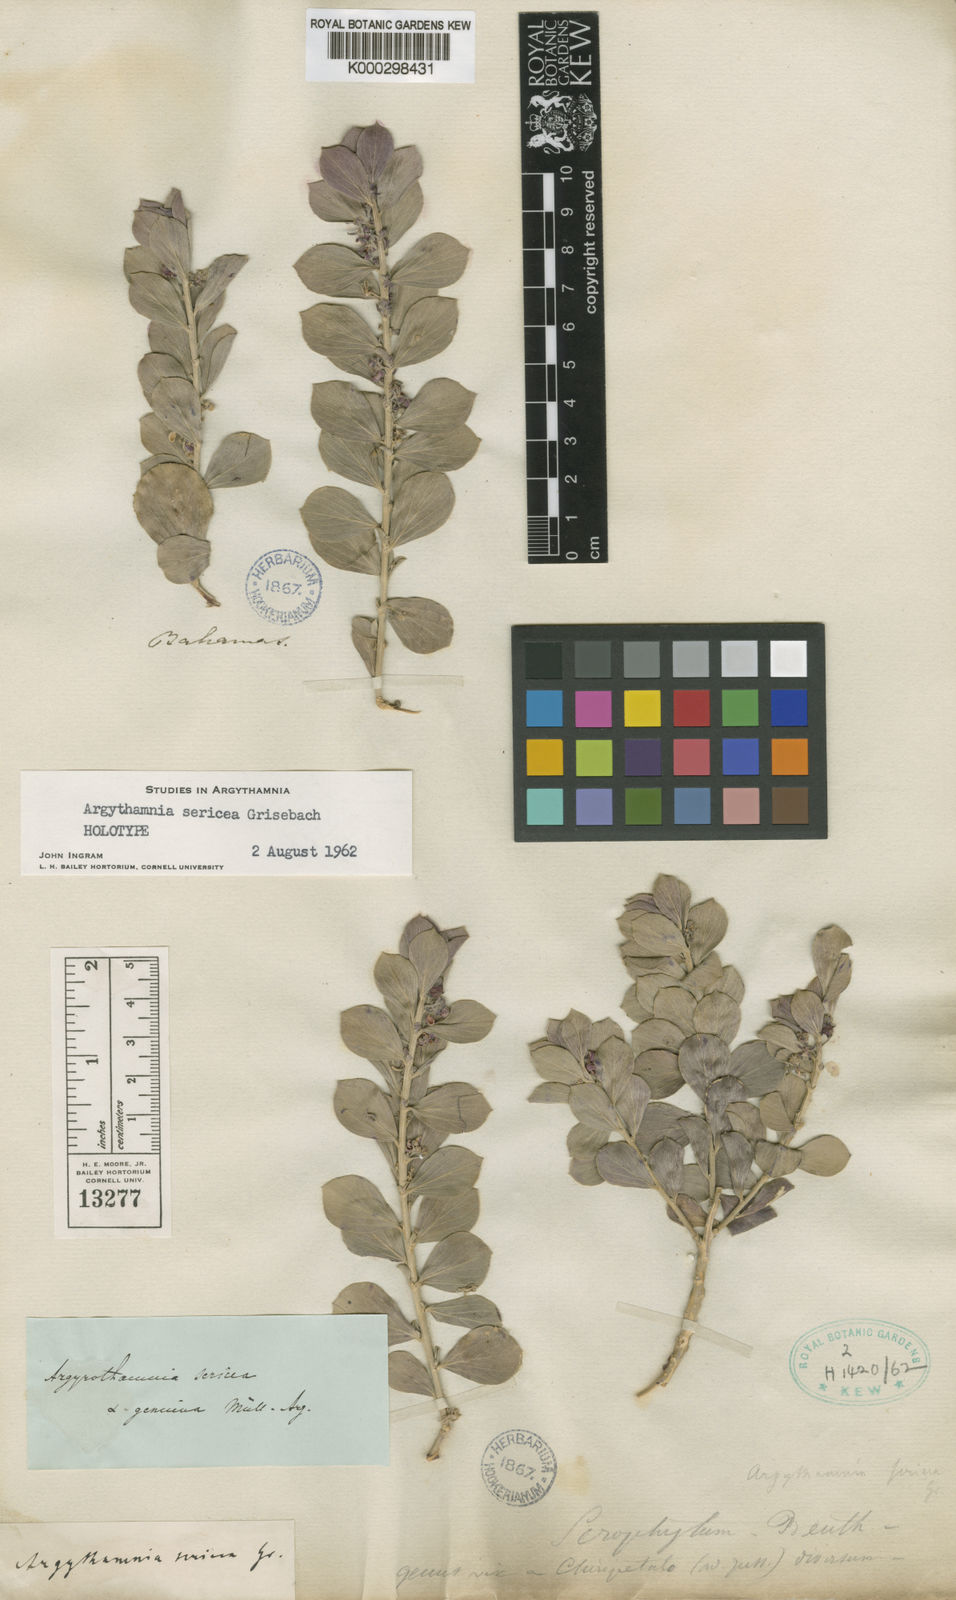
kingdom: Plantae
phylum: Tracheophyta
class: Magnoliopsida
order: Malpighiales
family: Euphorbiaceae
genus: Argythamnia
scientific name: Argythamnia sericea
